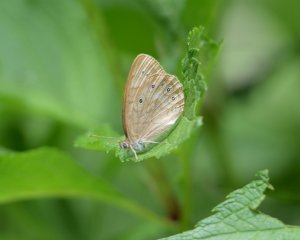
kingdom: Animalia
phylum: Arthropoda
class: Insecta
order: Lepidoptera
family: Nymphalidae
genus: Lethe
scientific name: Lethe eurydice
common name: Eyed Brown
